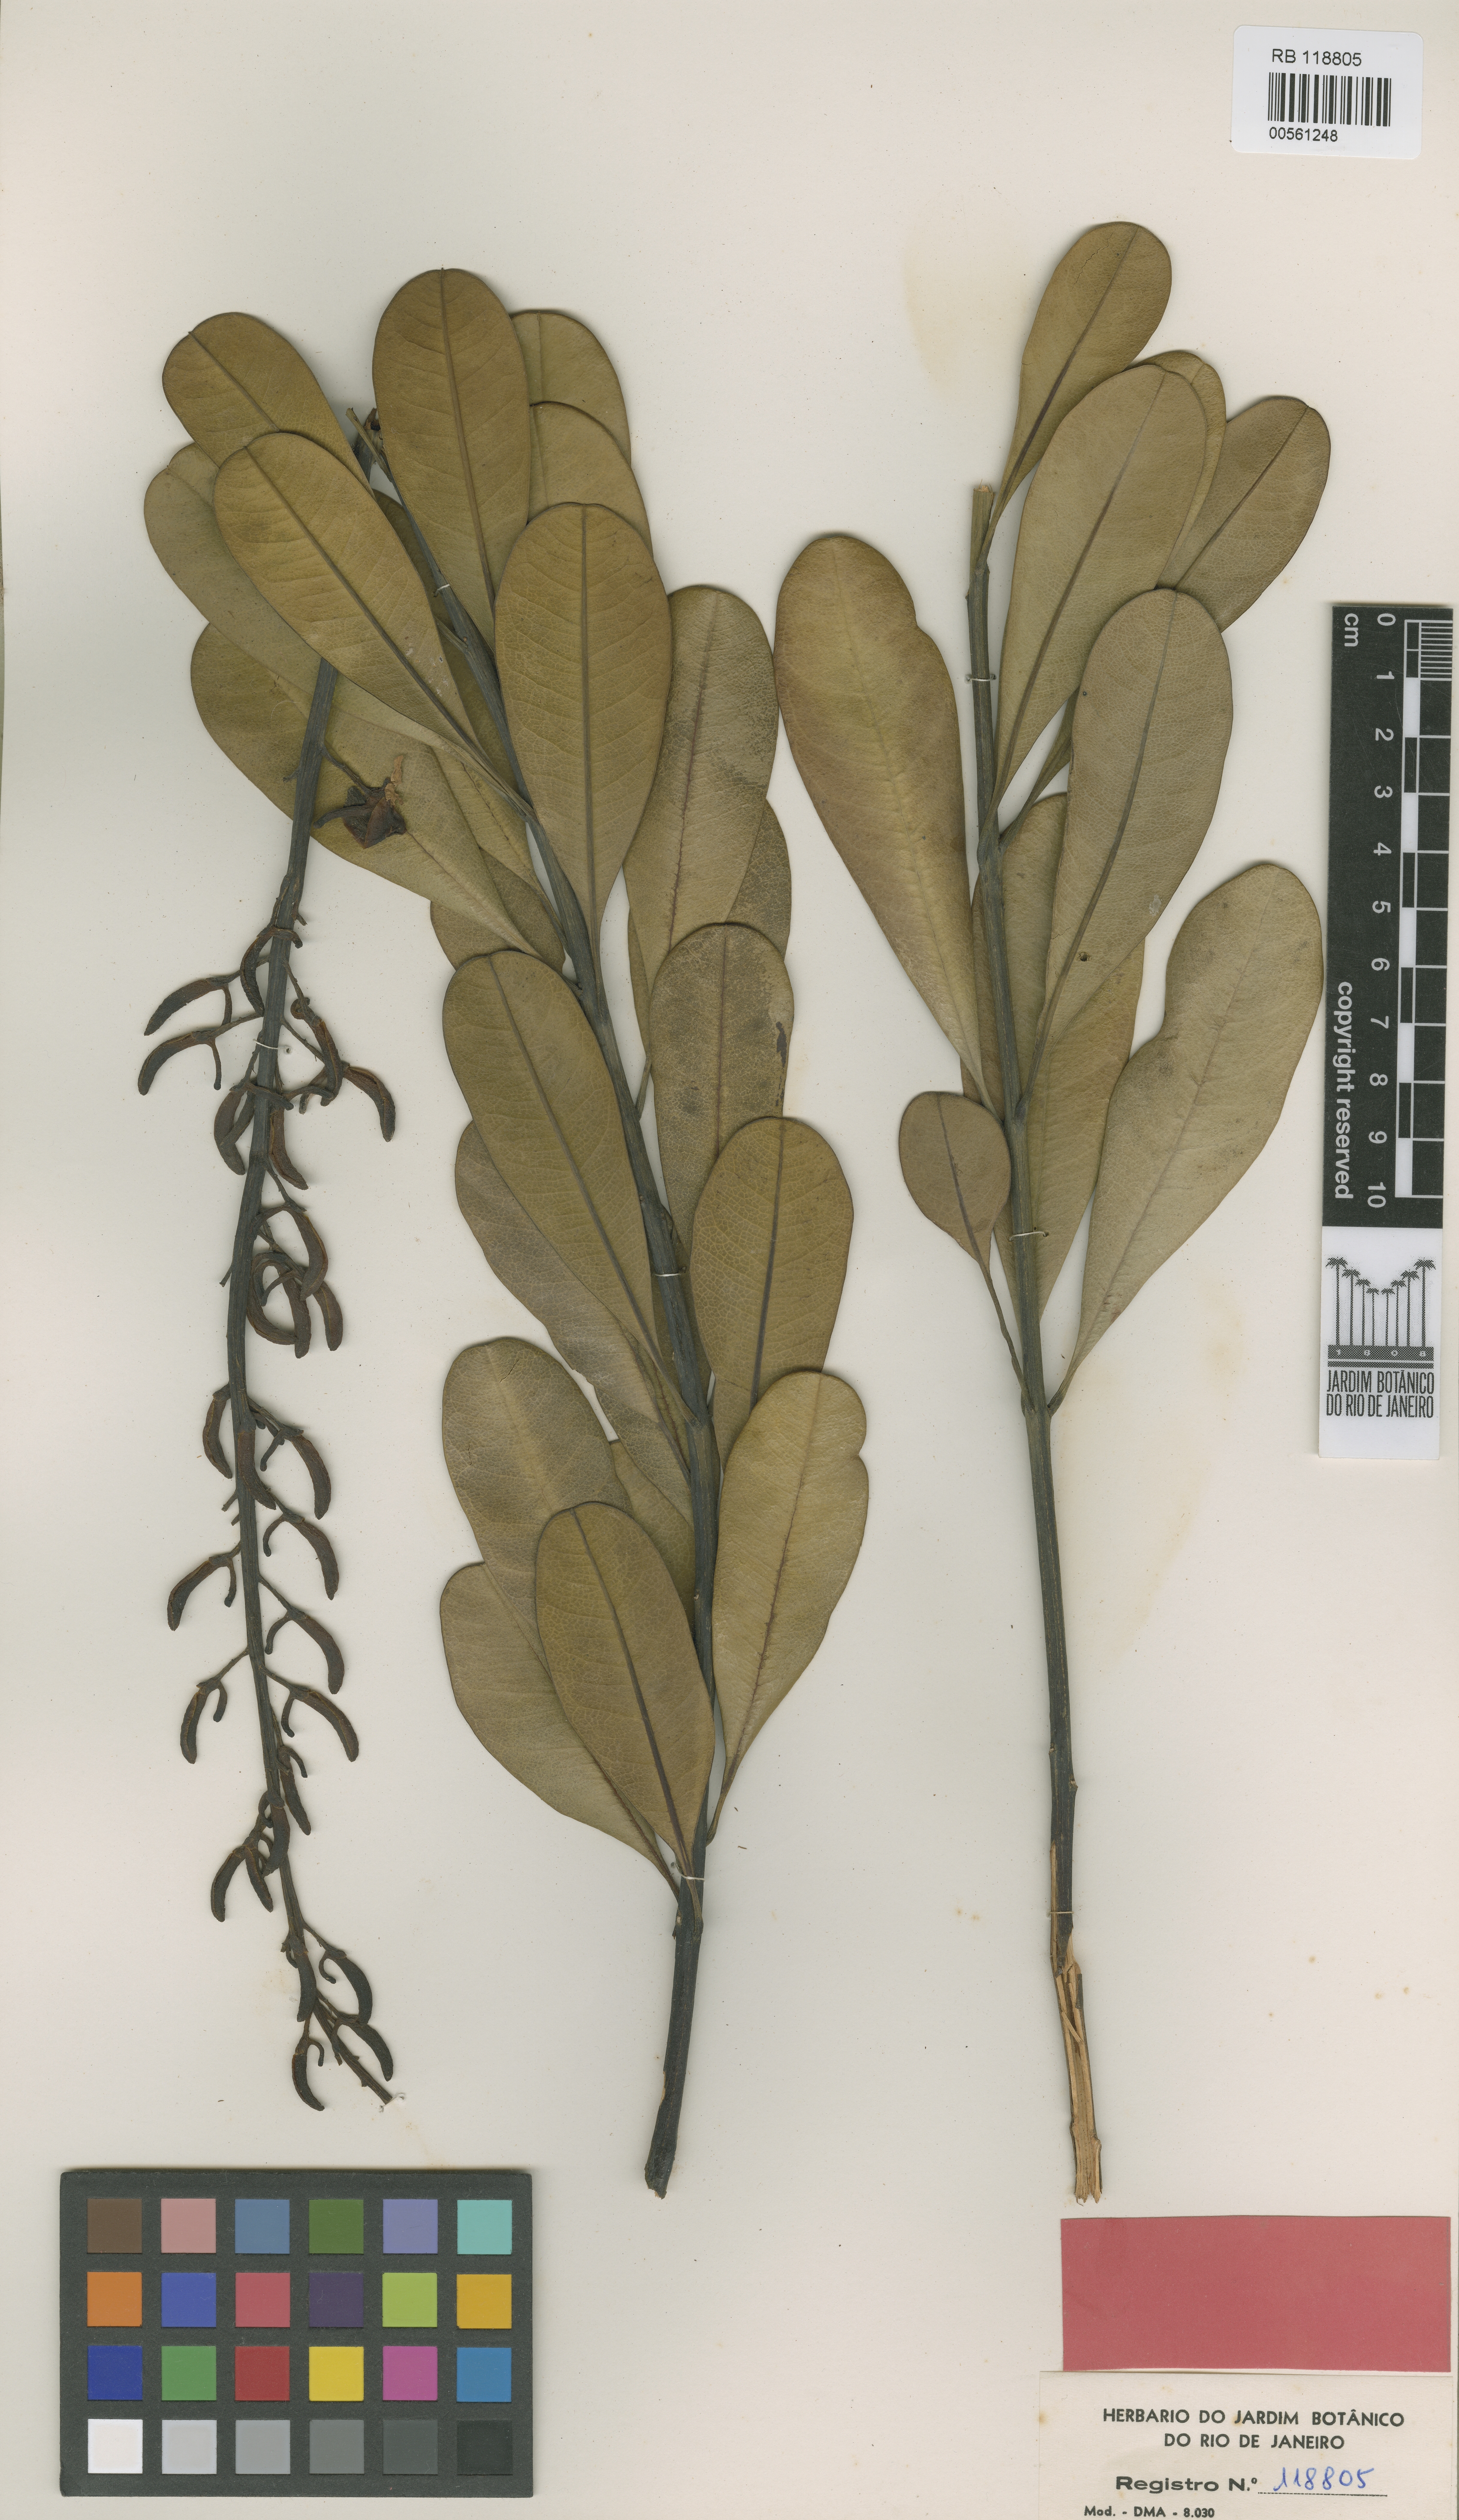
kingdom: Plantae
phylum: Tracheophyta
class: Magnoliopsida
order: Myrtales
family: Vochysiaceae
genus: Vochysia
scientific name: Vochysia pseudopumila
